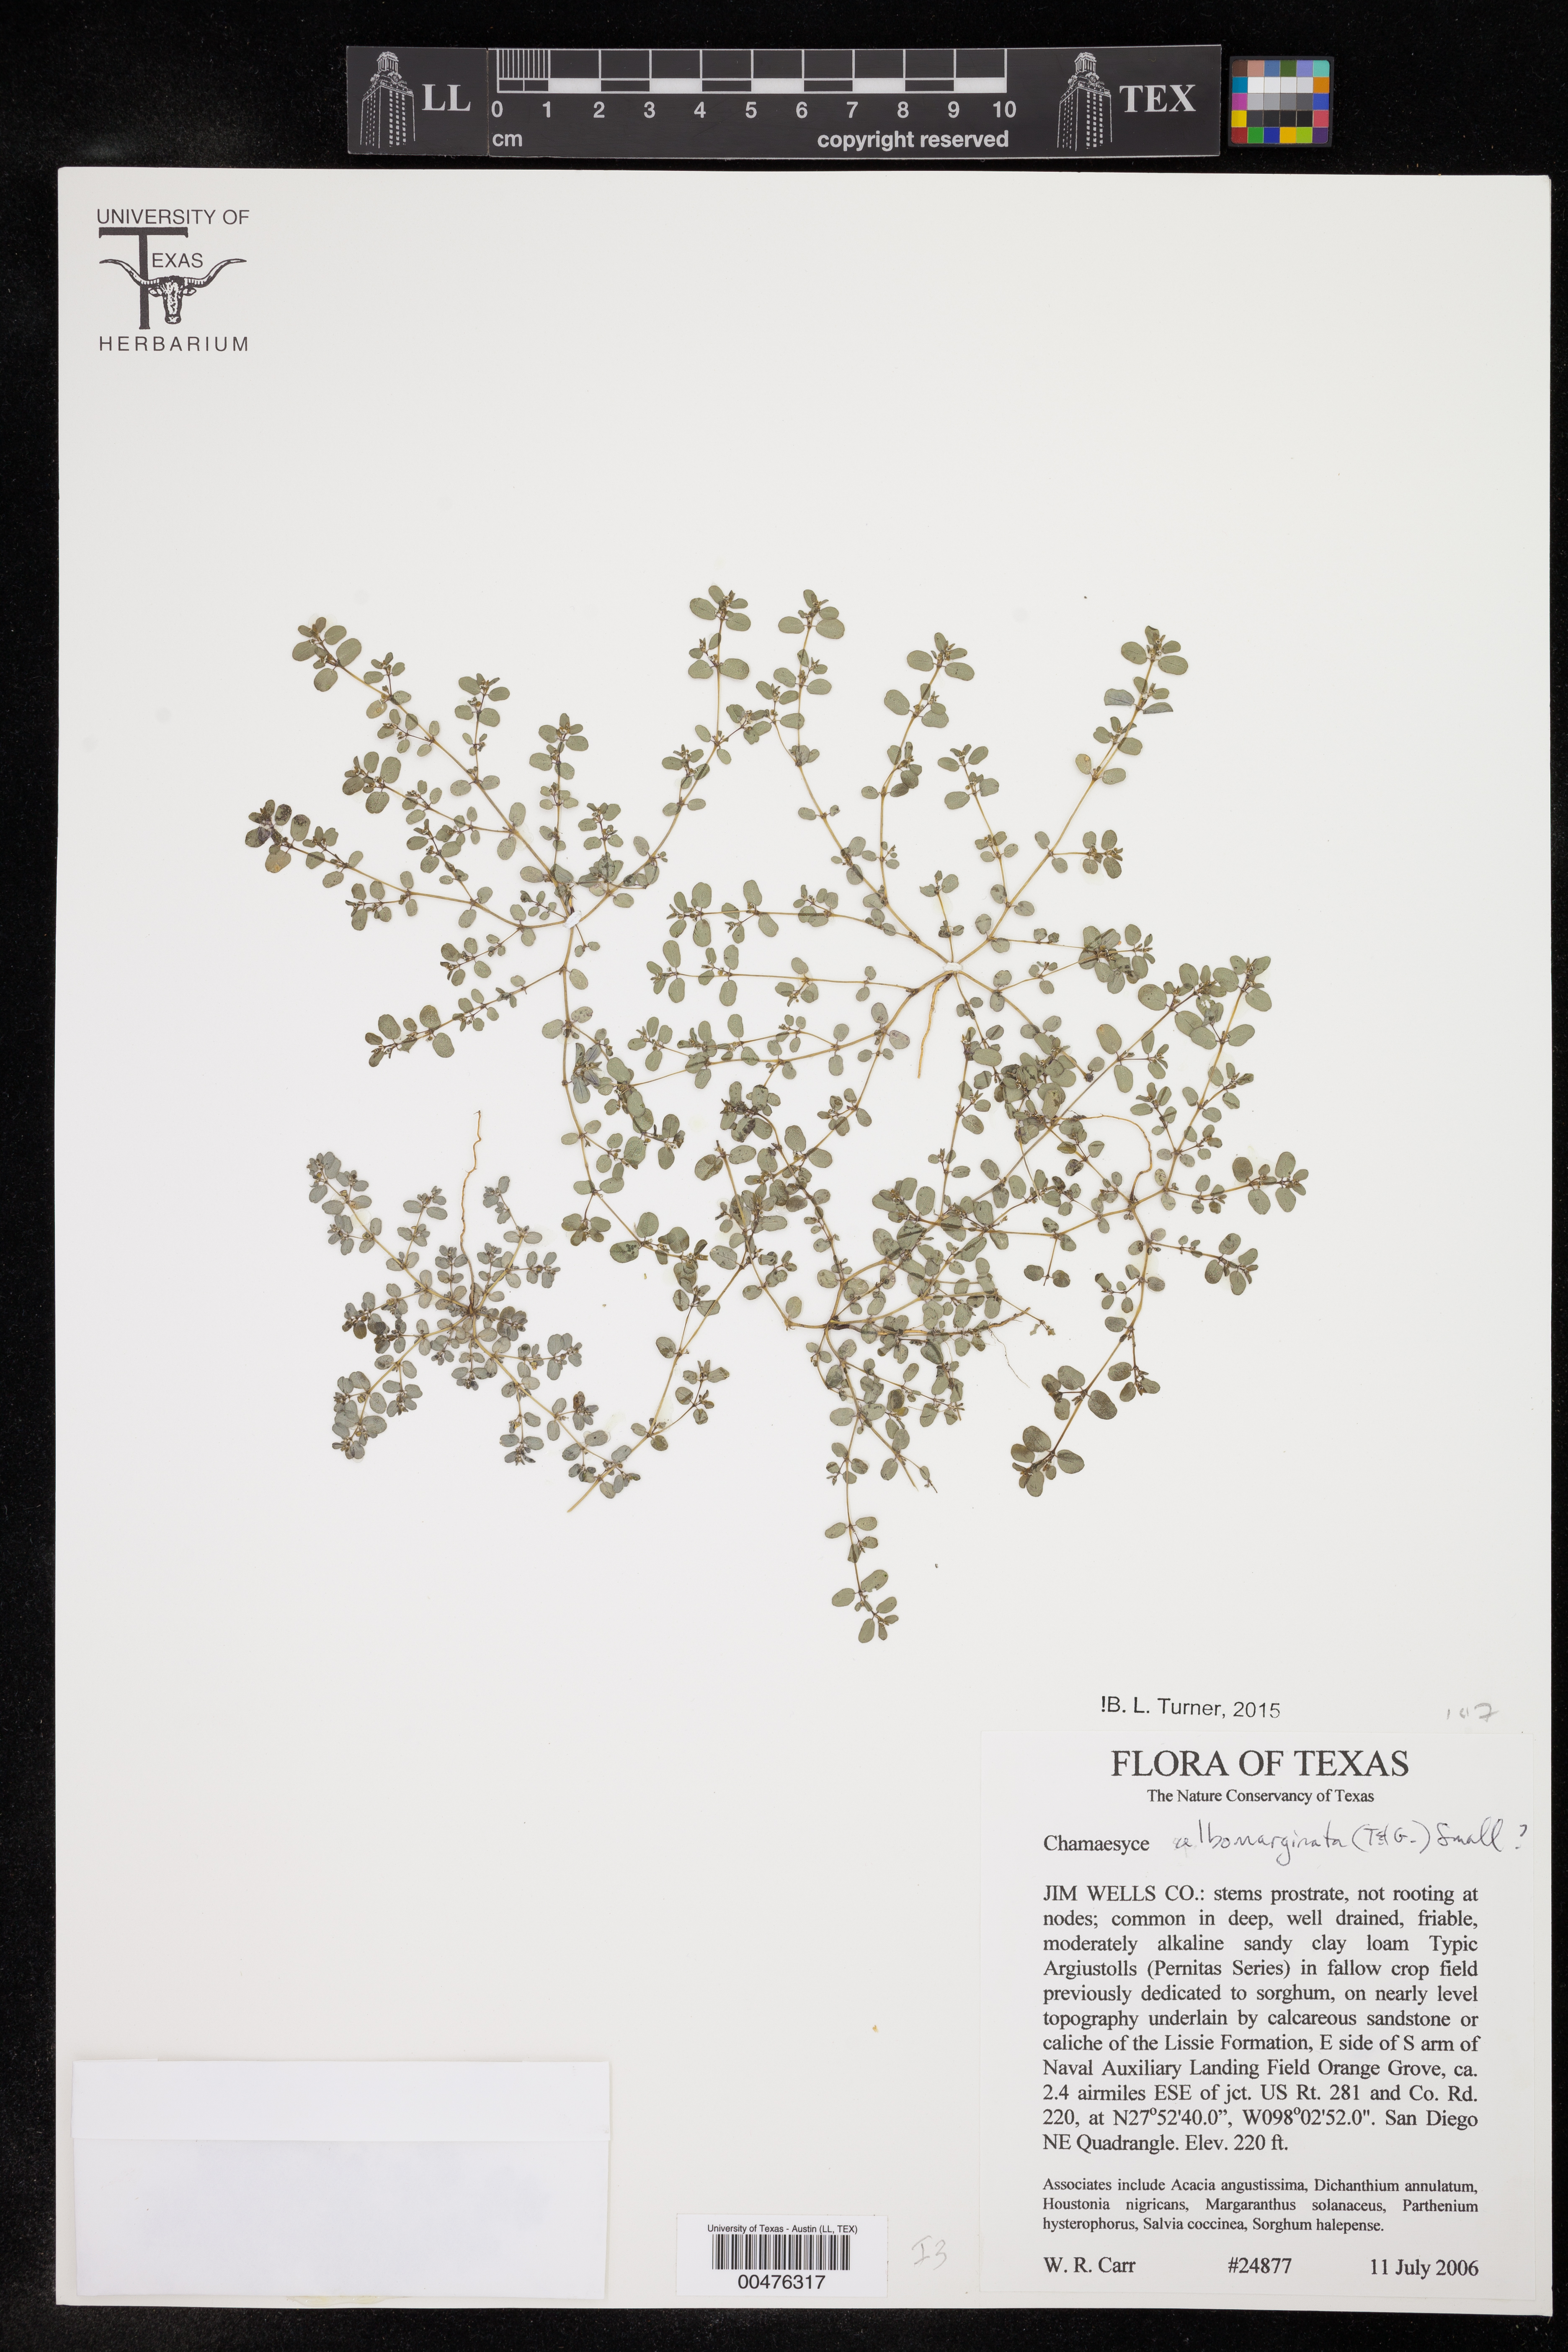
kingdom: Plantae
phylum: Tracheophyta
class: Magnoliopsida
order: Malpighiales
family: Euphorbiaceae
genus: Euphorbia
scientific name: Euphorbia albomarginata
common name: Whitemargin sandmat
